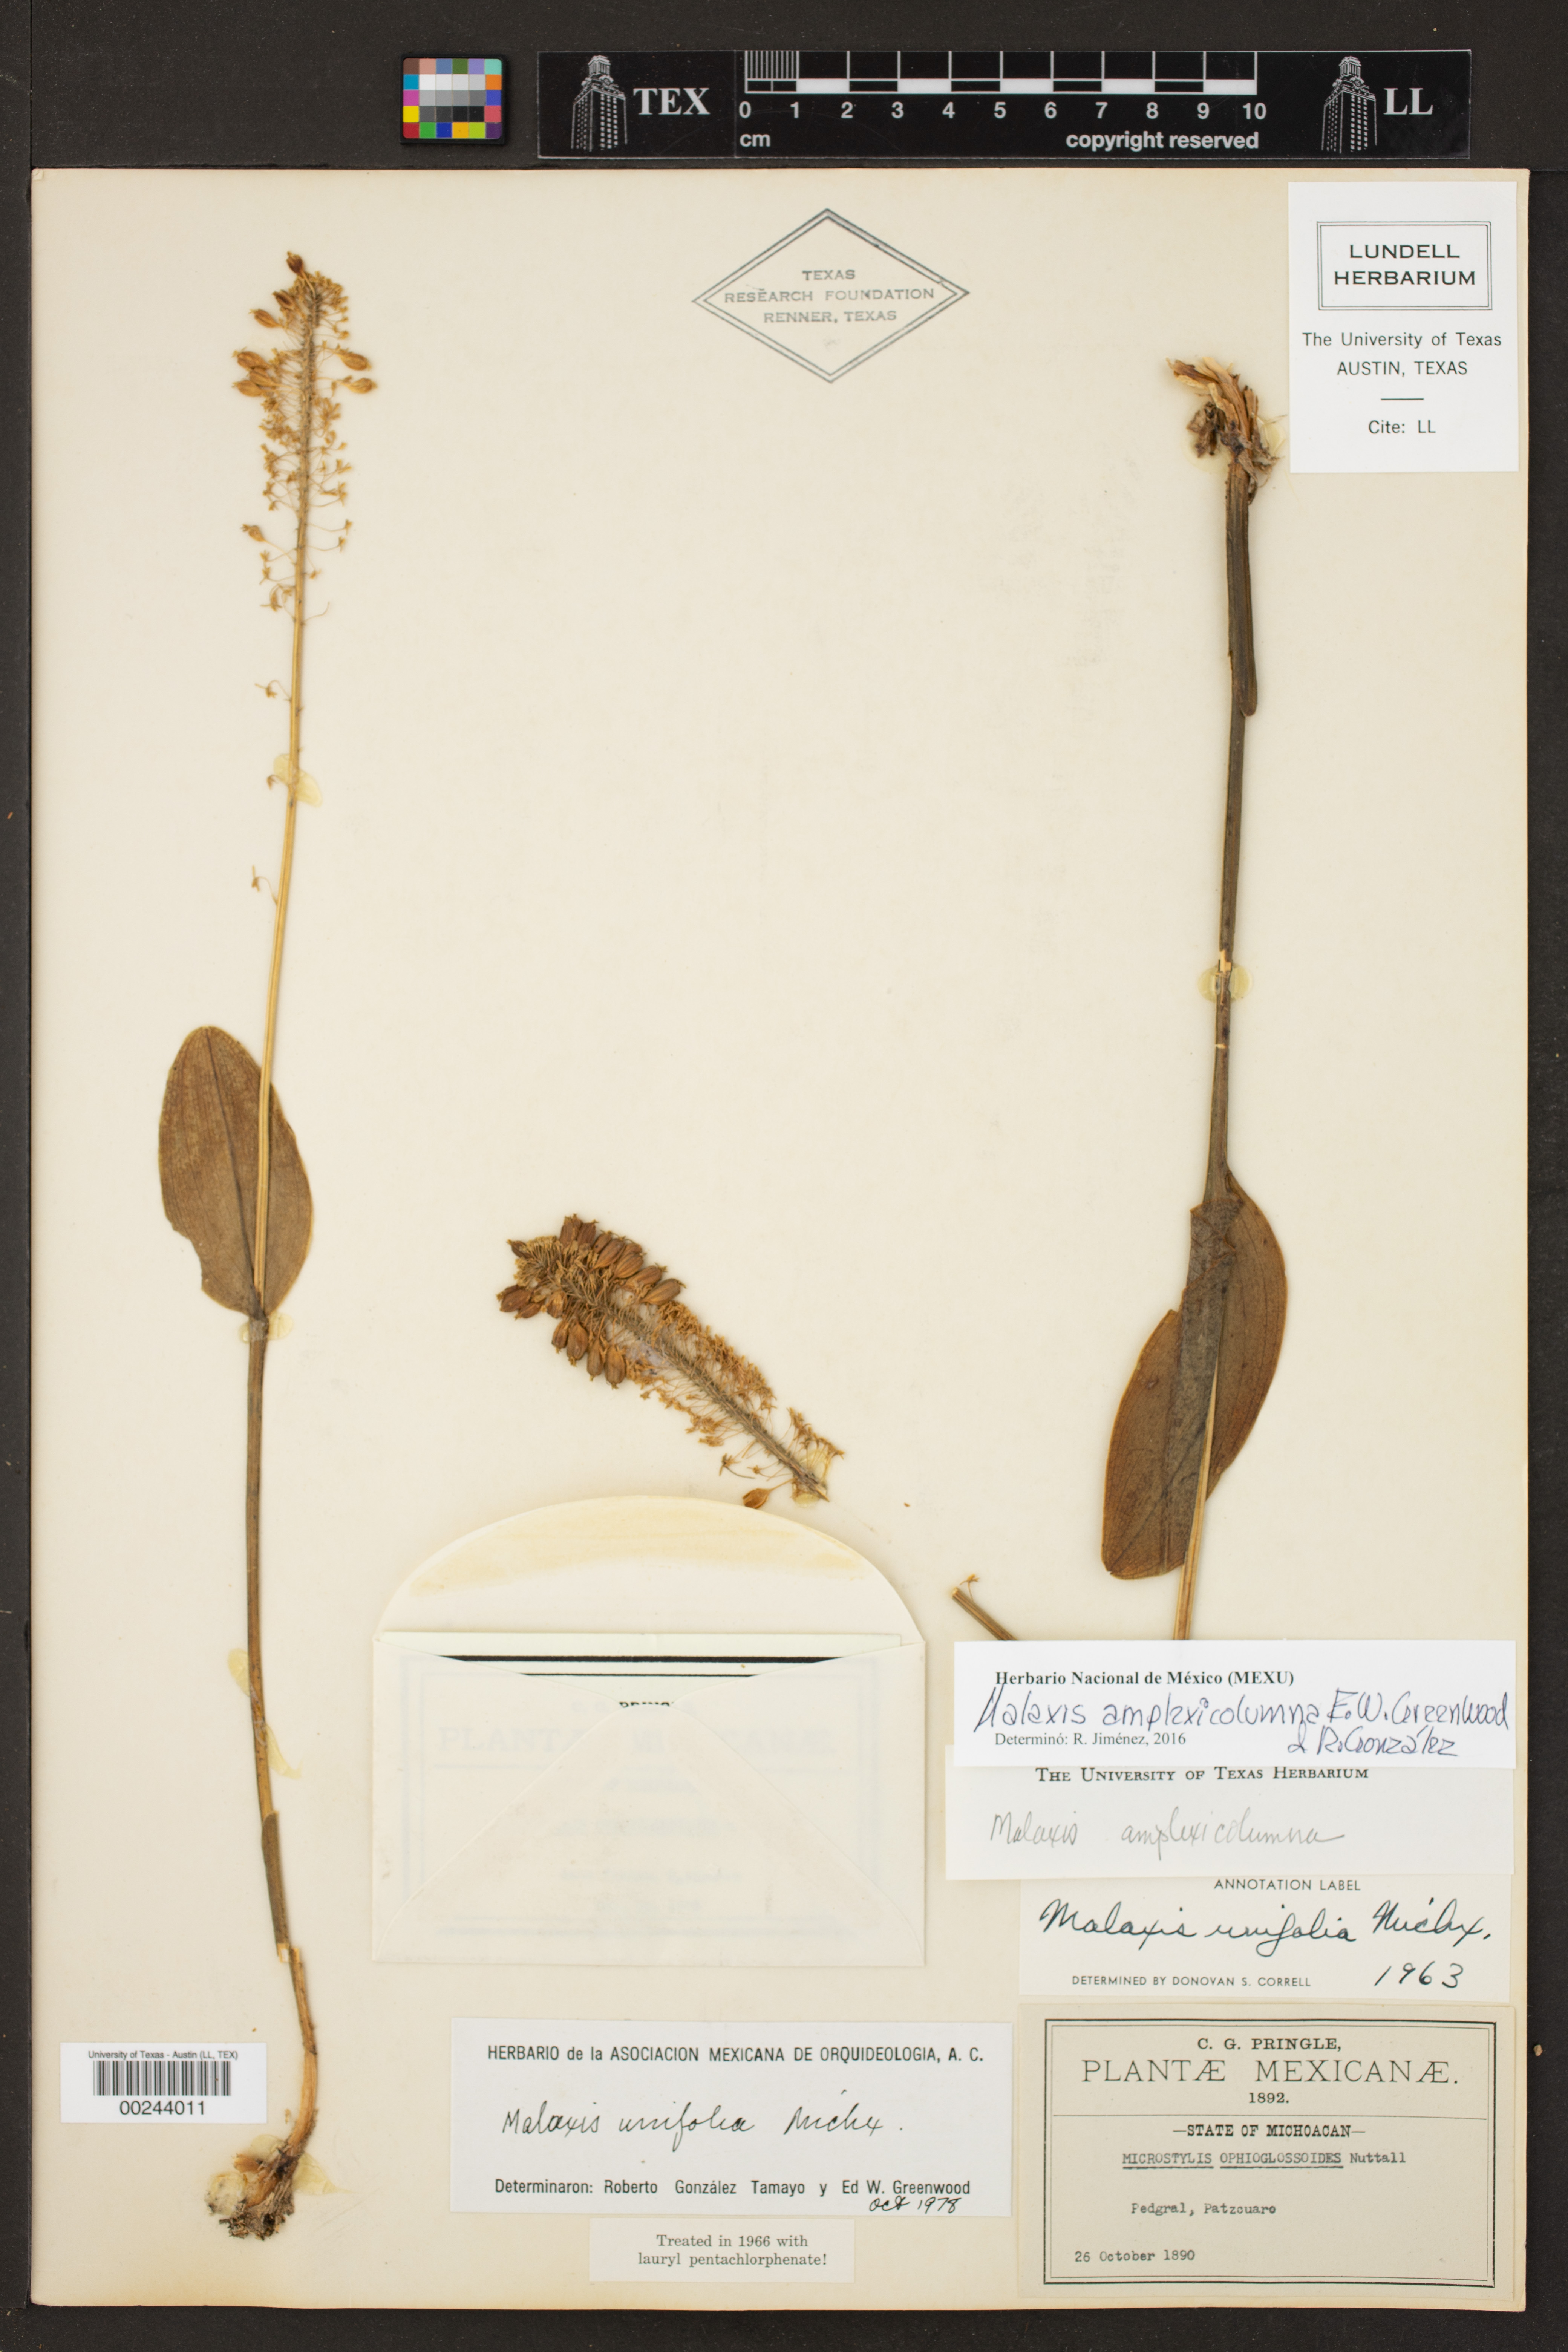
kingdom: Plantae
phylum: Tracheophyta
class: Liliopsida
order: Asparagales
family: Orchidaceae
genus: Malaxis
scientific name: Malaxis unifolia
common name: Green adder's-mouth
